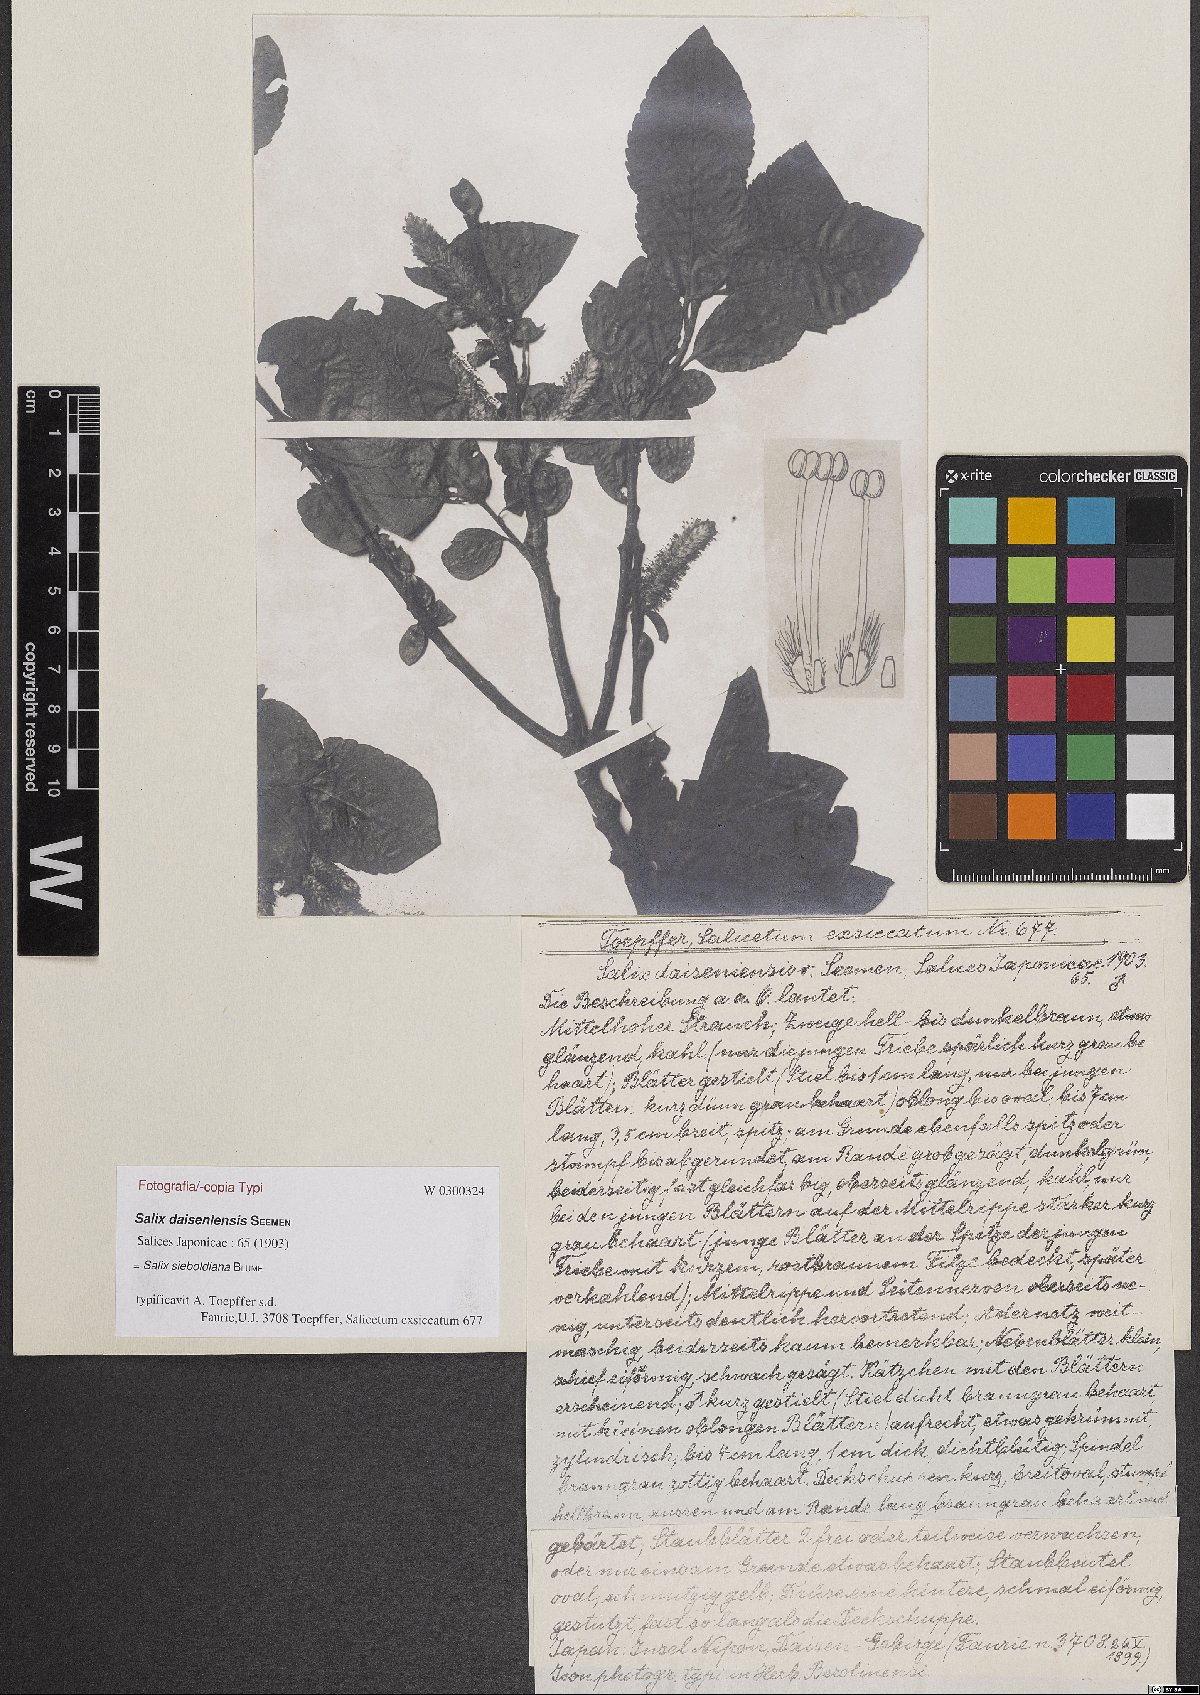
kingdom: Plantae
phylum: Tracheophyta
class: Magnoliopsida
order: Malpighiales
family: Salicaceae
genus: Salix
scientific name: Salix sieboldiana
